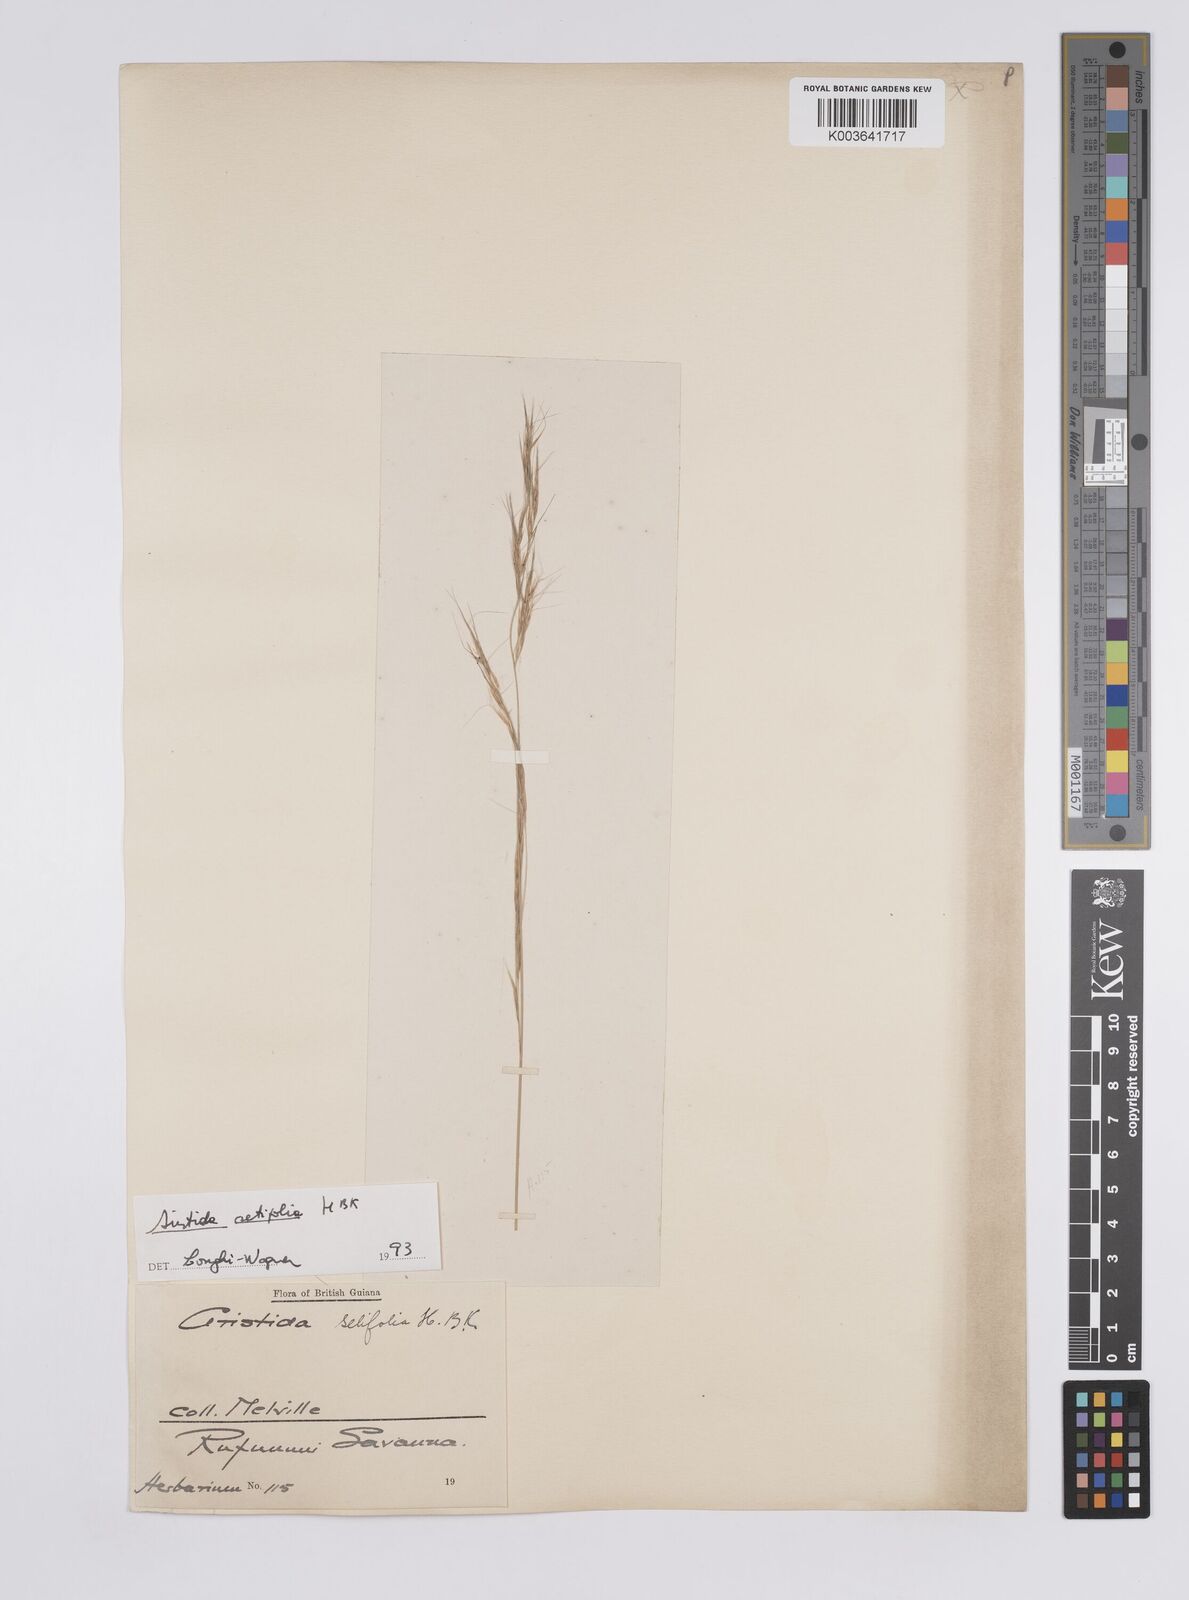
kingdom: Plantae
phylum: Tracheophyta
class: Liliopsida
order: Poales
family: Poaceae
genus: Aristida
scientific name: Aristida setifolia
